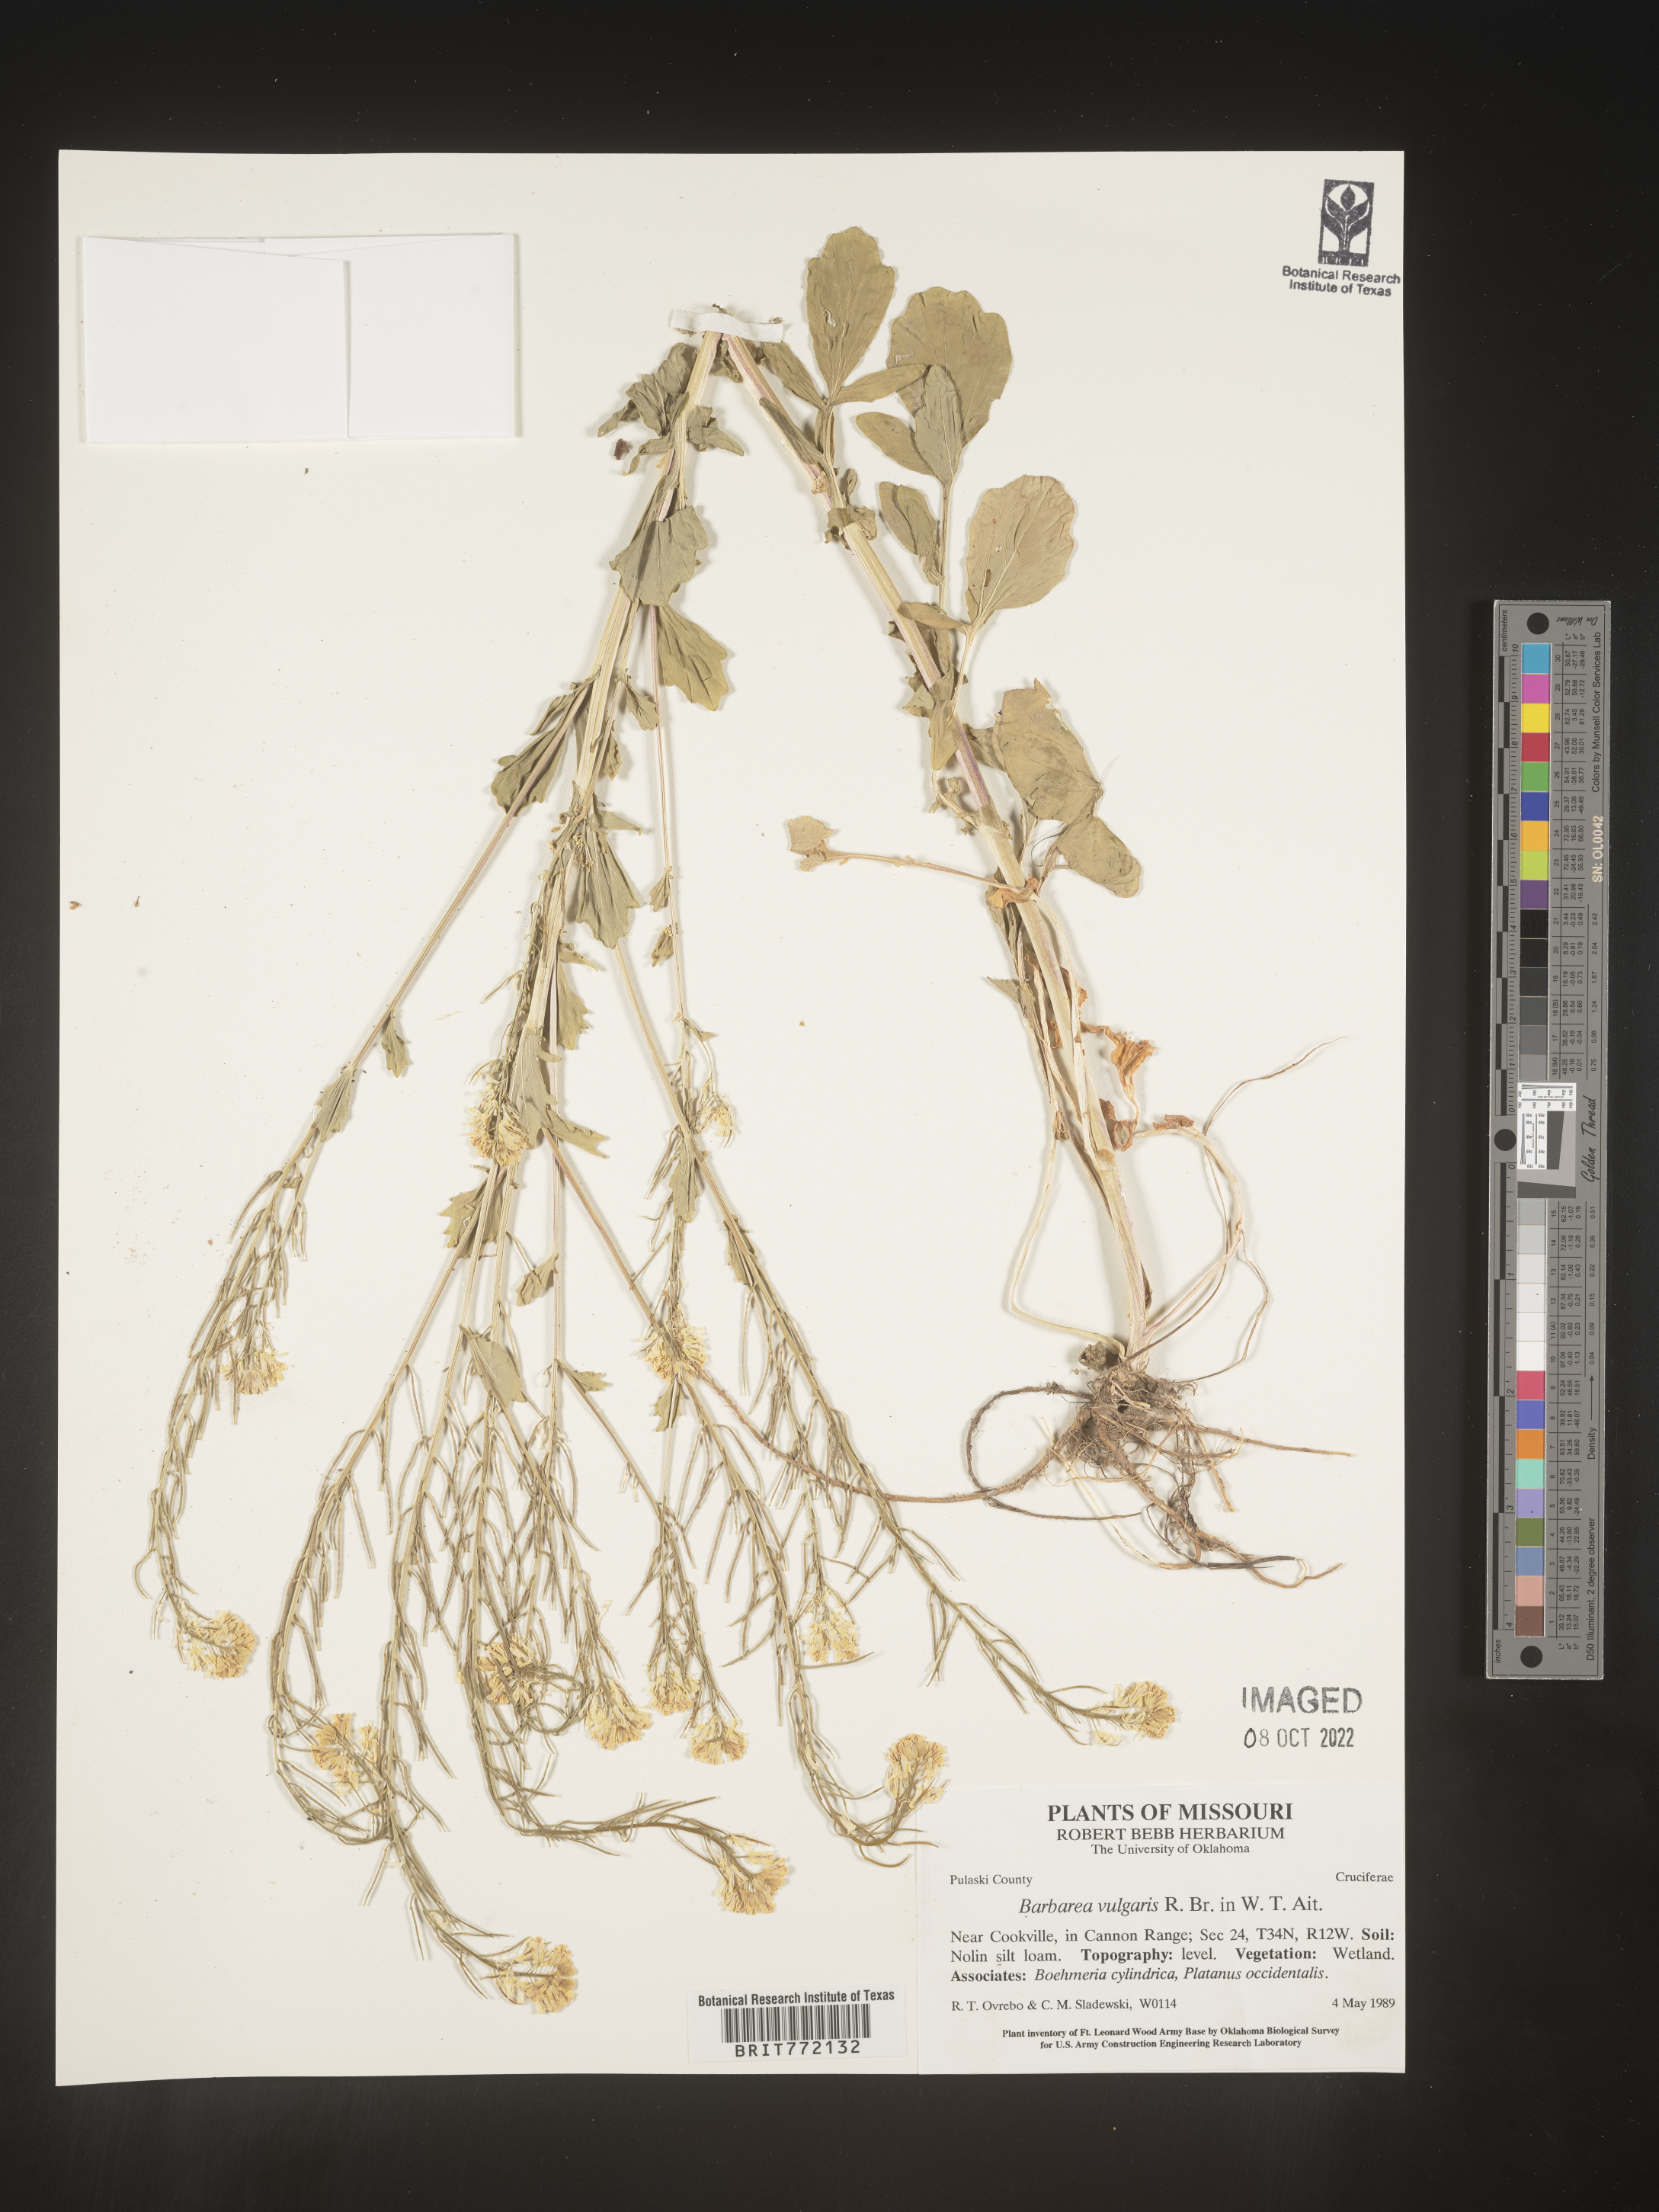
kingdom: Plantae
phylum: Tracheophyta
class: Magnoliopsida
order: Brassicales
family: Brassicaceae
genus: Barbarea
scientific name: Barbarea vulgaris
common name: Cressy-greens
